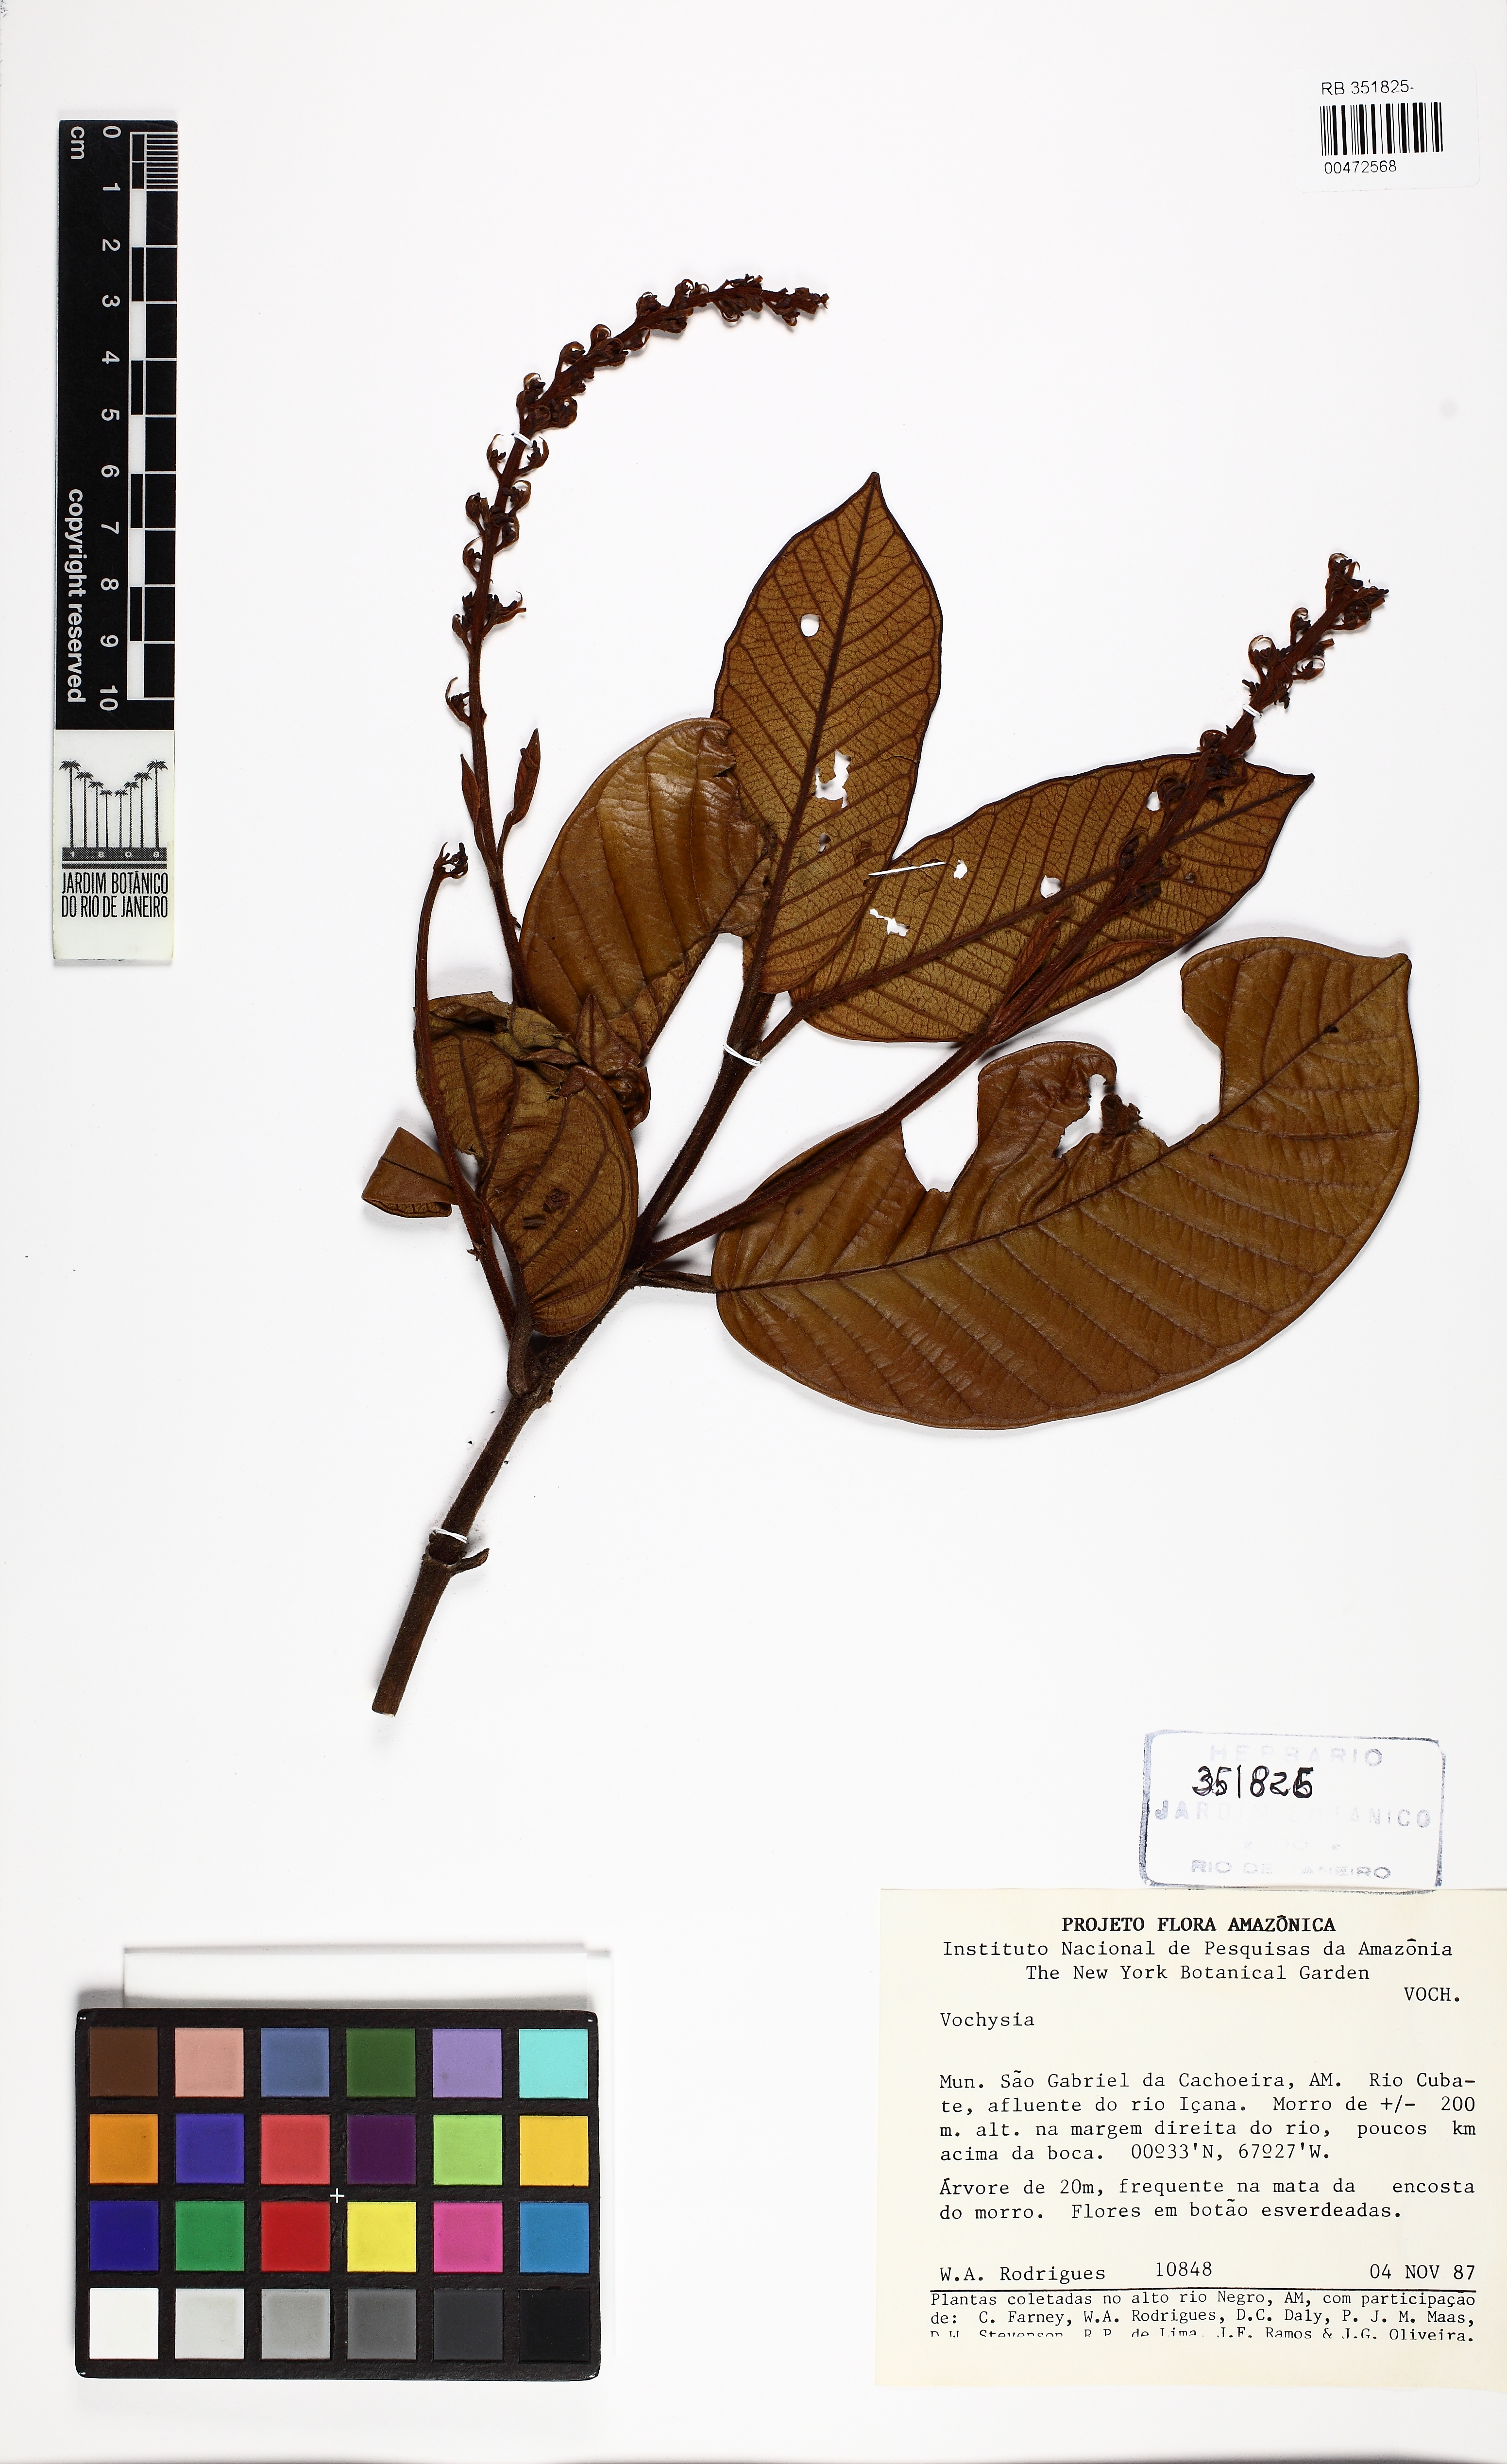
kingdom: Plantae
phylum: Tracheophyta
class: Magnoliopsida
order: Myrtales
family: Vochysiaceae
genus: Vochysia
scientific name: Vochysia
